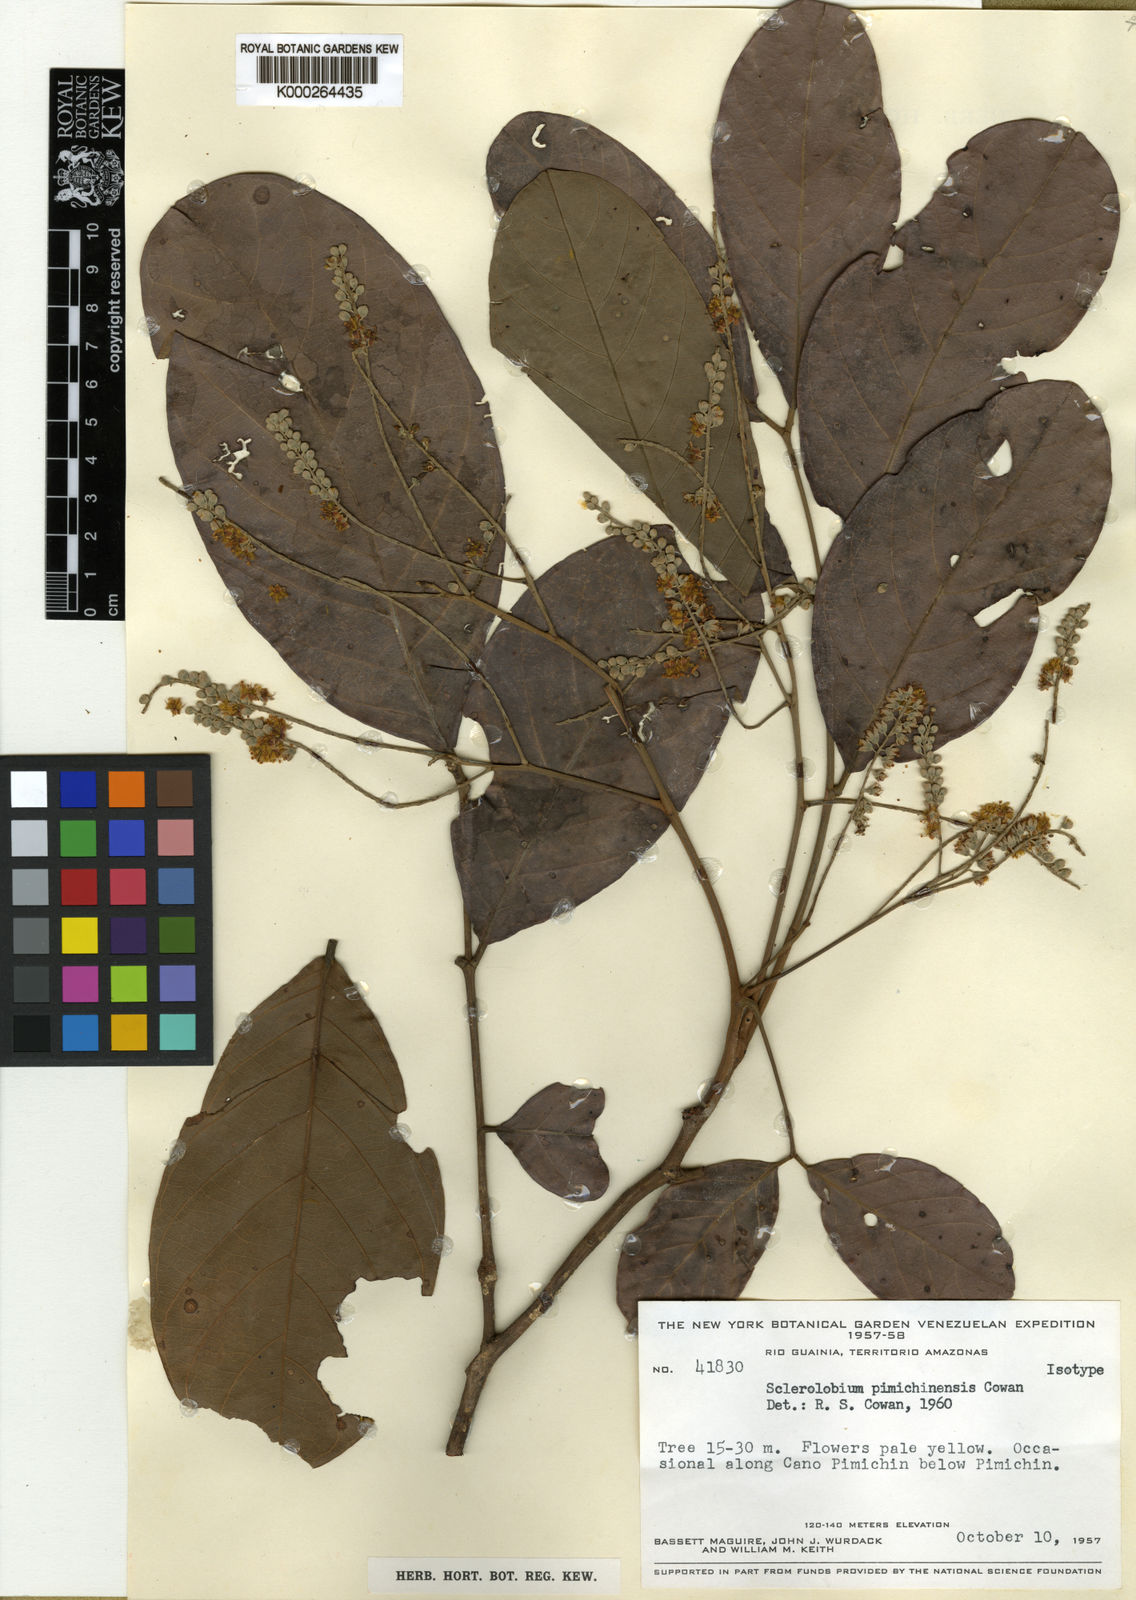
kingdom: Plantae
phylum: Tracheophyta
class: Magnoliopsida
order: Fabales
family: Fabaceae
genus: Tachigali
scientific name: Tachigali
